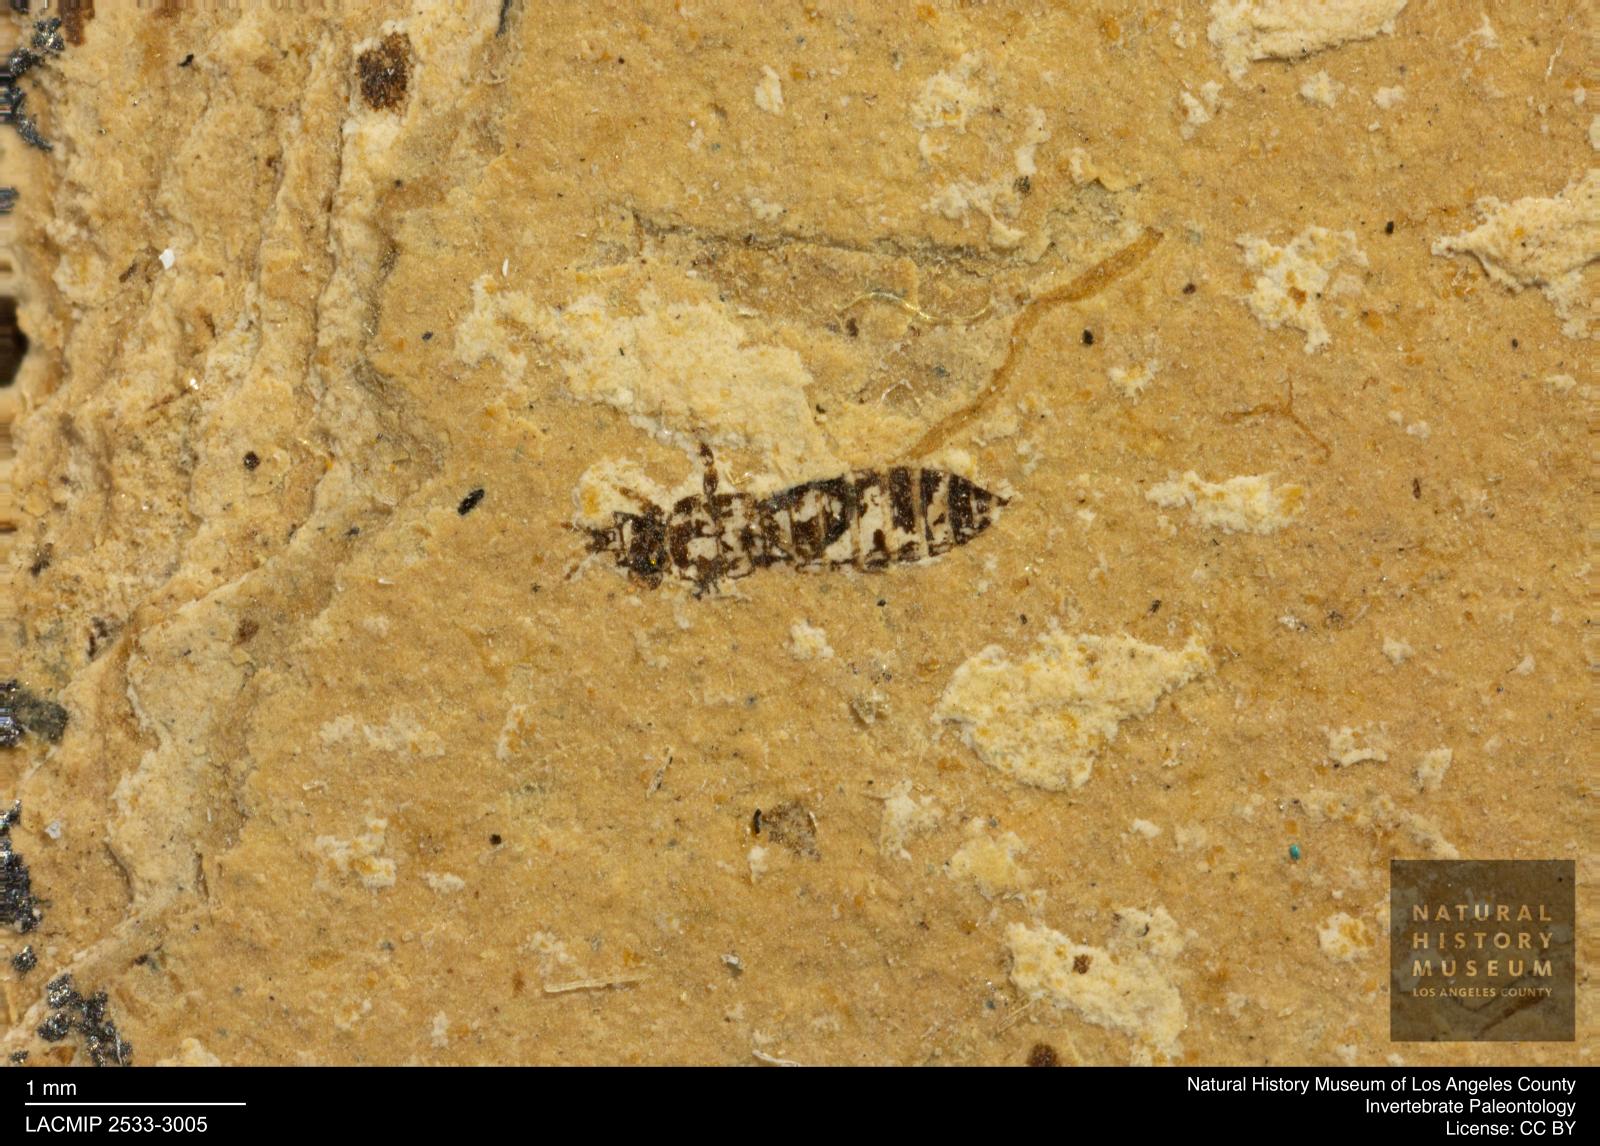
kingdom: Animalia
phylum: Arthropoda
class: Insecta
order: Thysanoptera
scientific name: Thysanoptera
